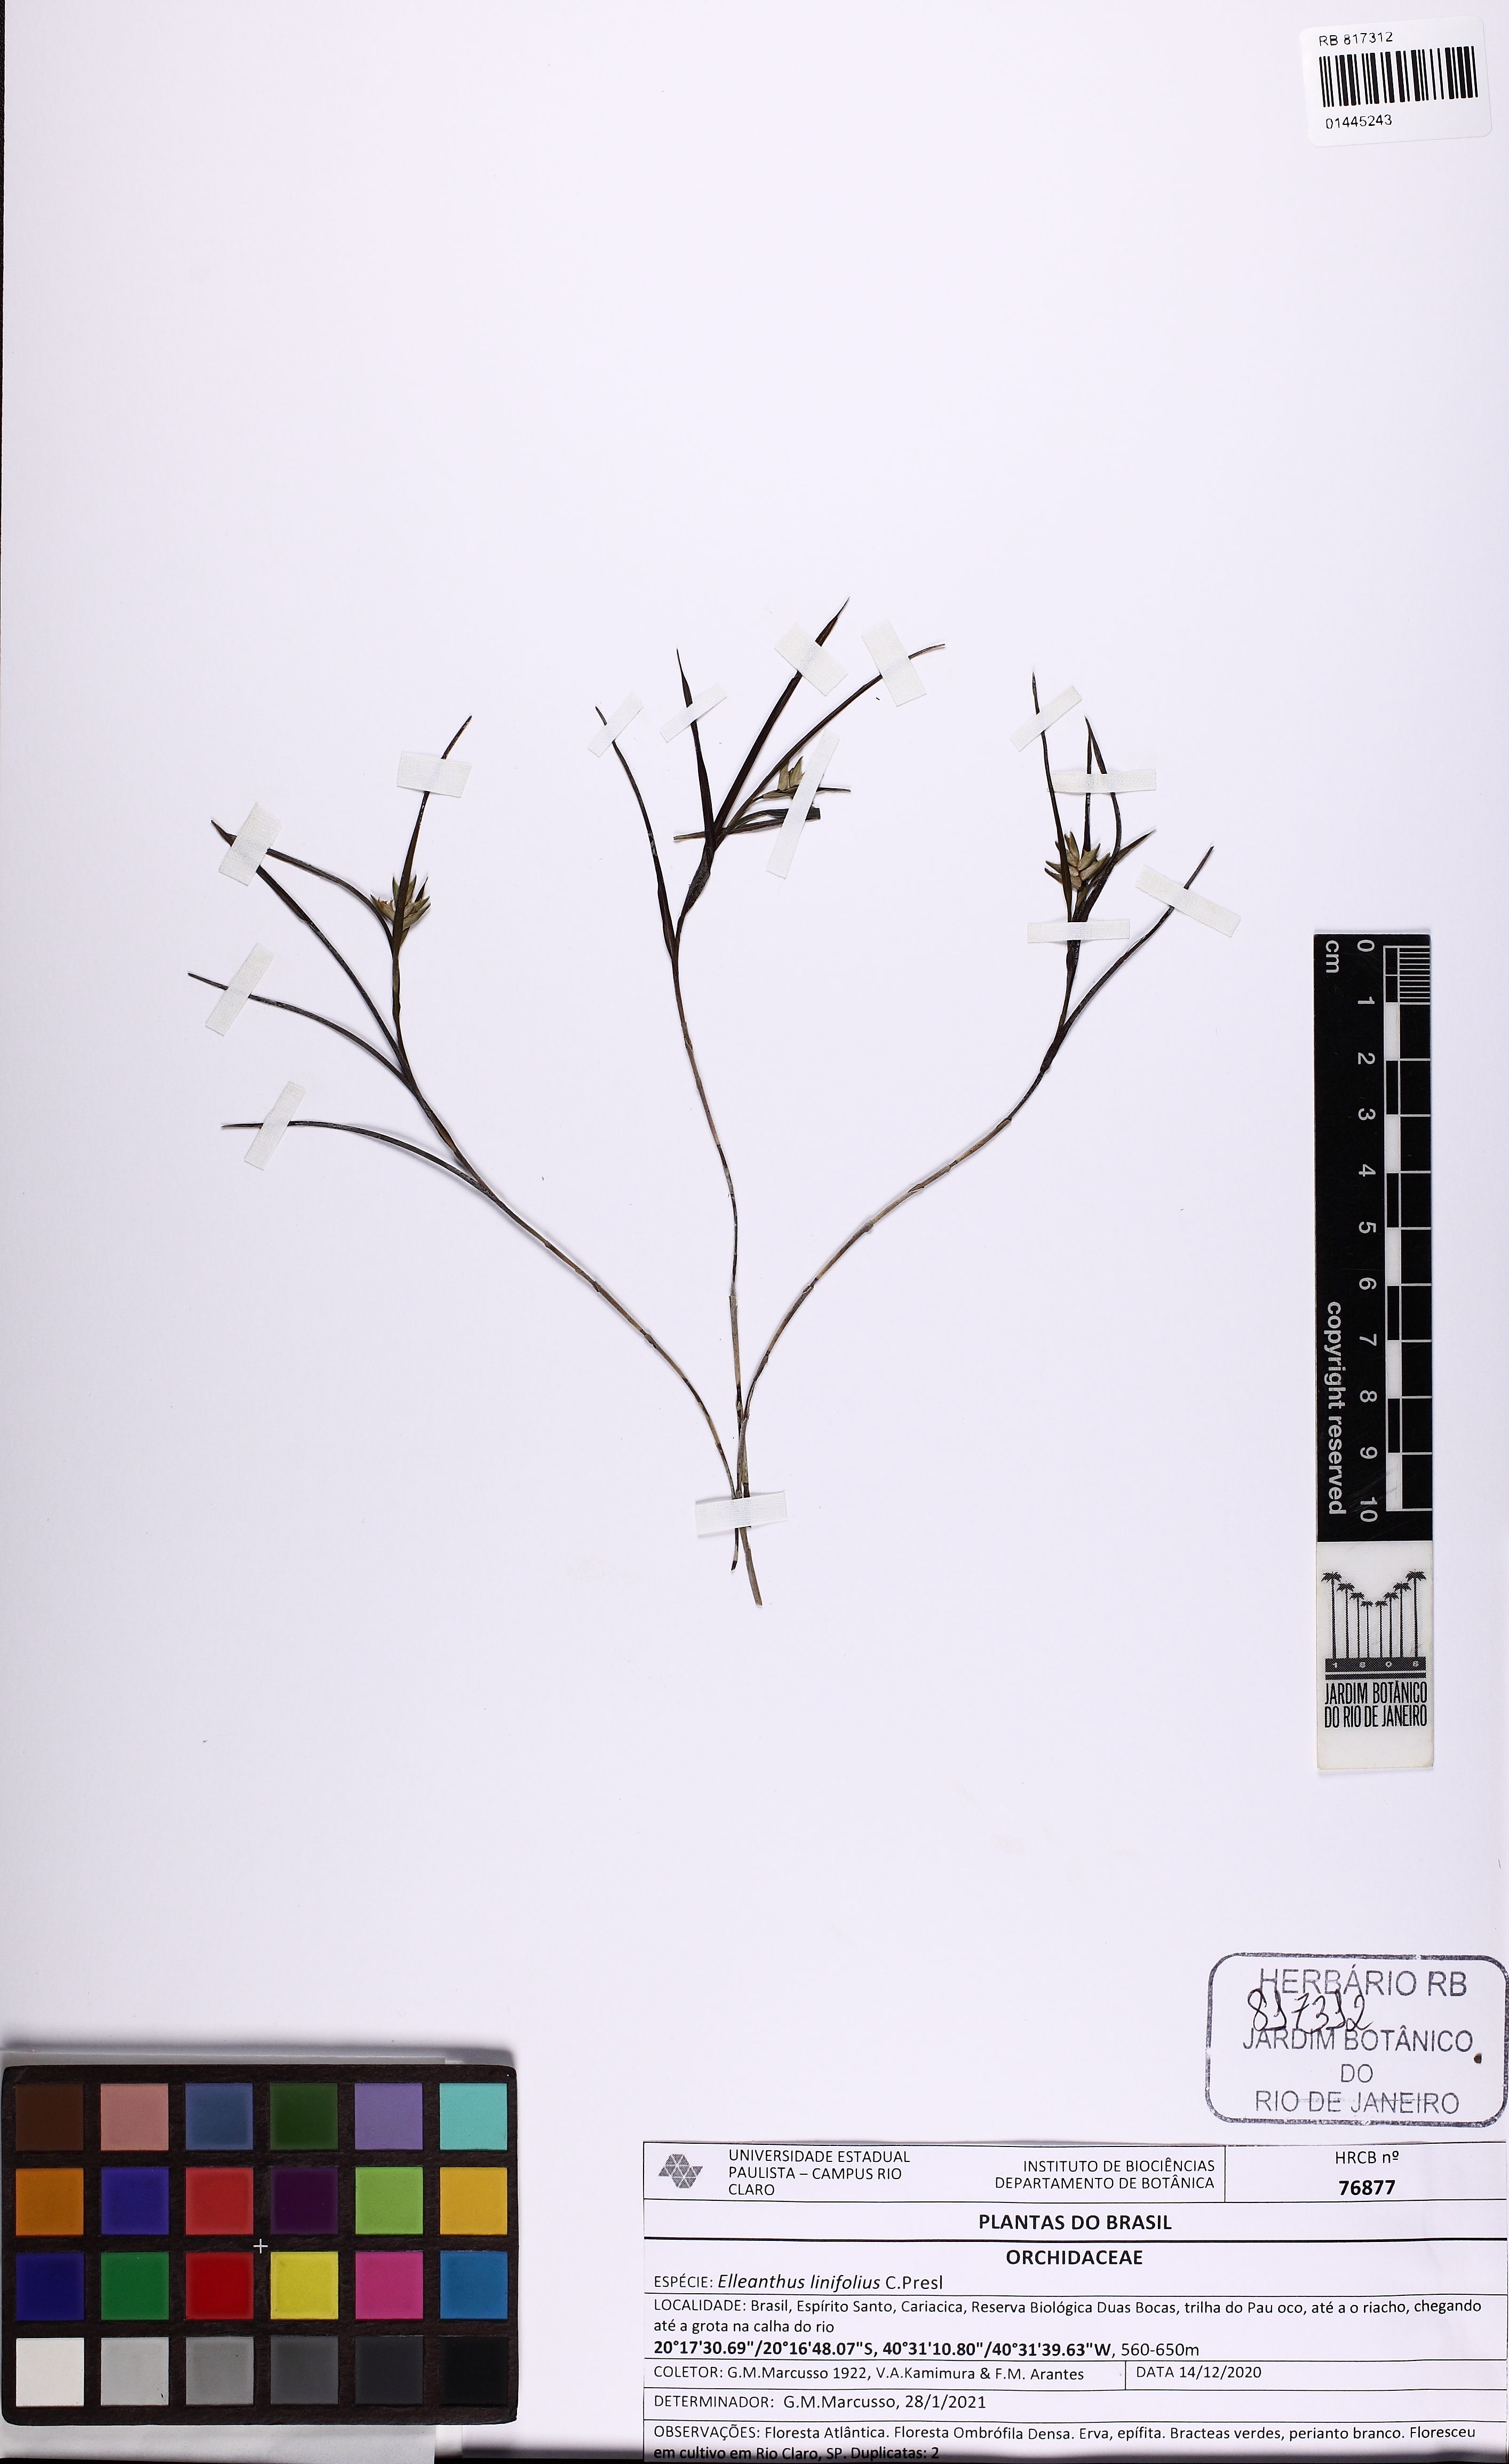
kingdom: Plantae
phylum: Tracheophyta
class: Liliopsida
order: Asparagales
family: Orchidaceae
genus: Elleanthus
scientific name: Elleanthus linifolius
